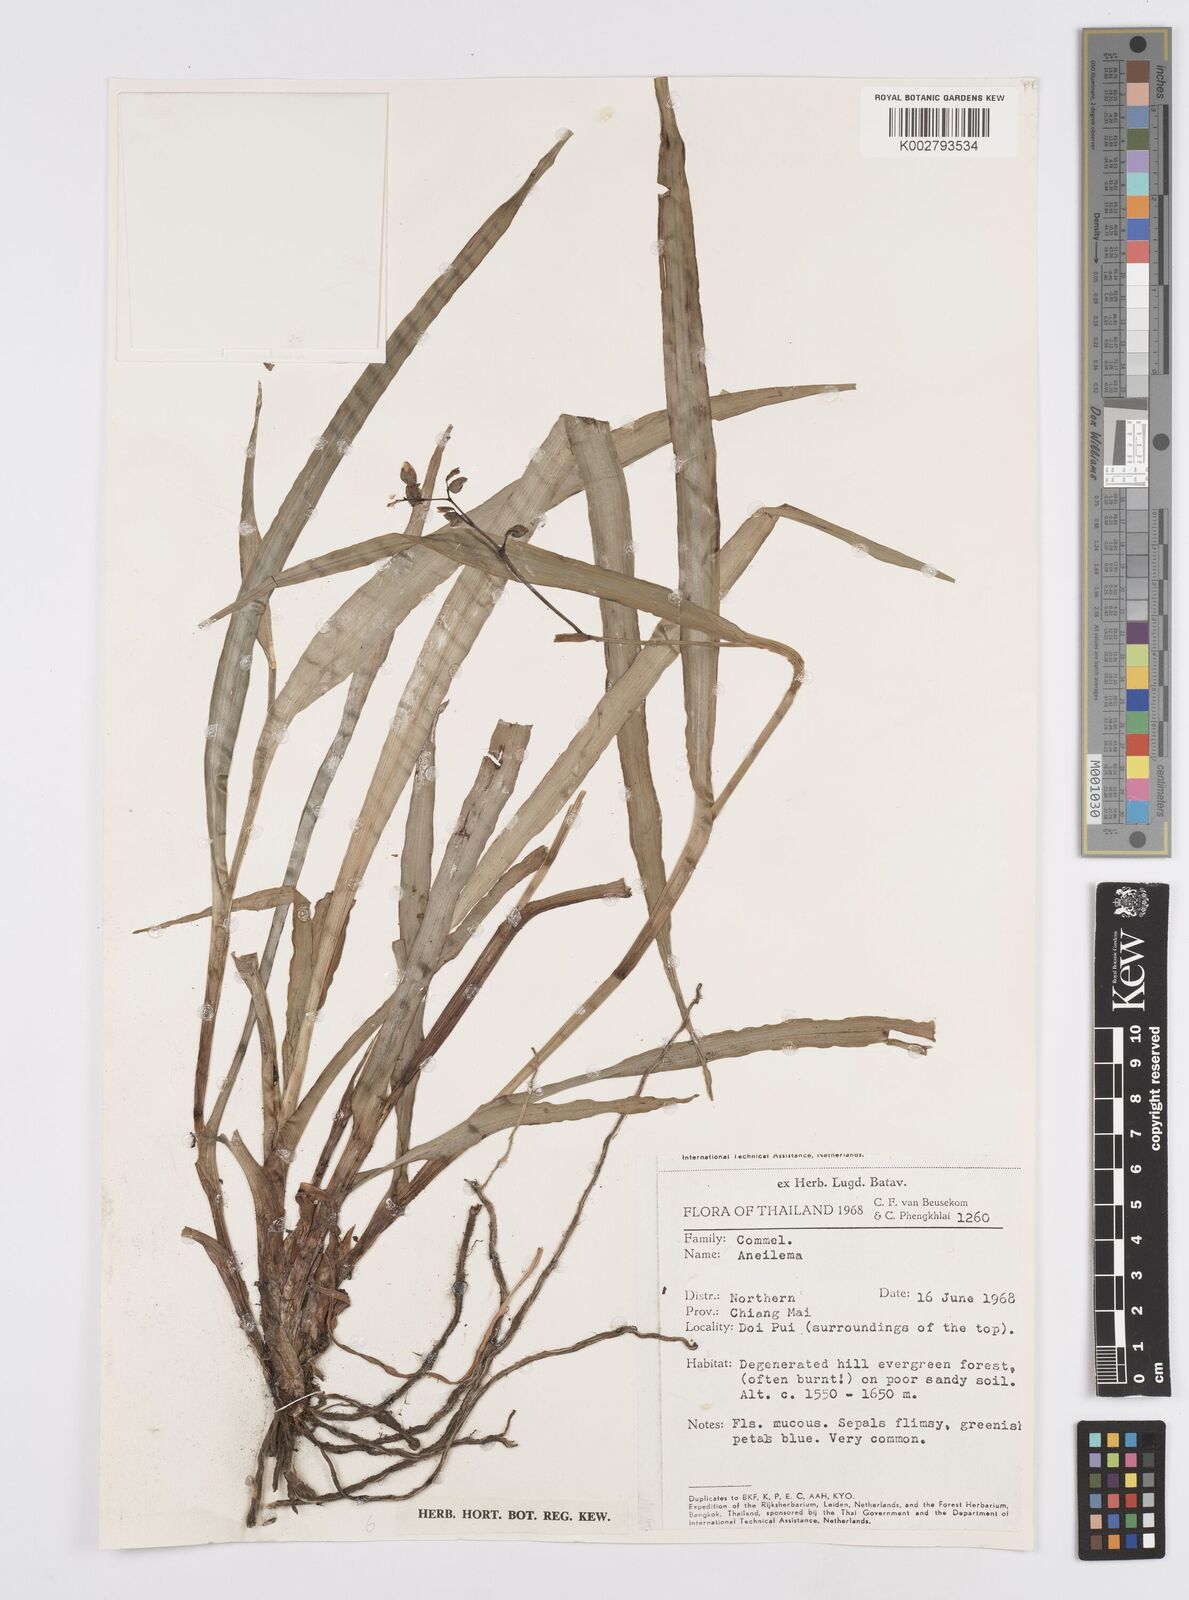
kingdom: Plantae
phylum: Tracheophyta
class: Liliopsida
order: Commelinales
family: Commelinaceae
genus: Murdannia
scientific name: Murdannia
